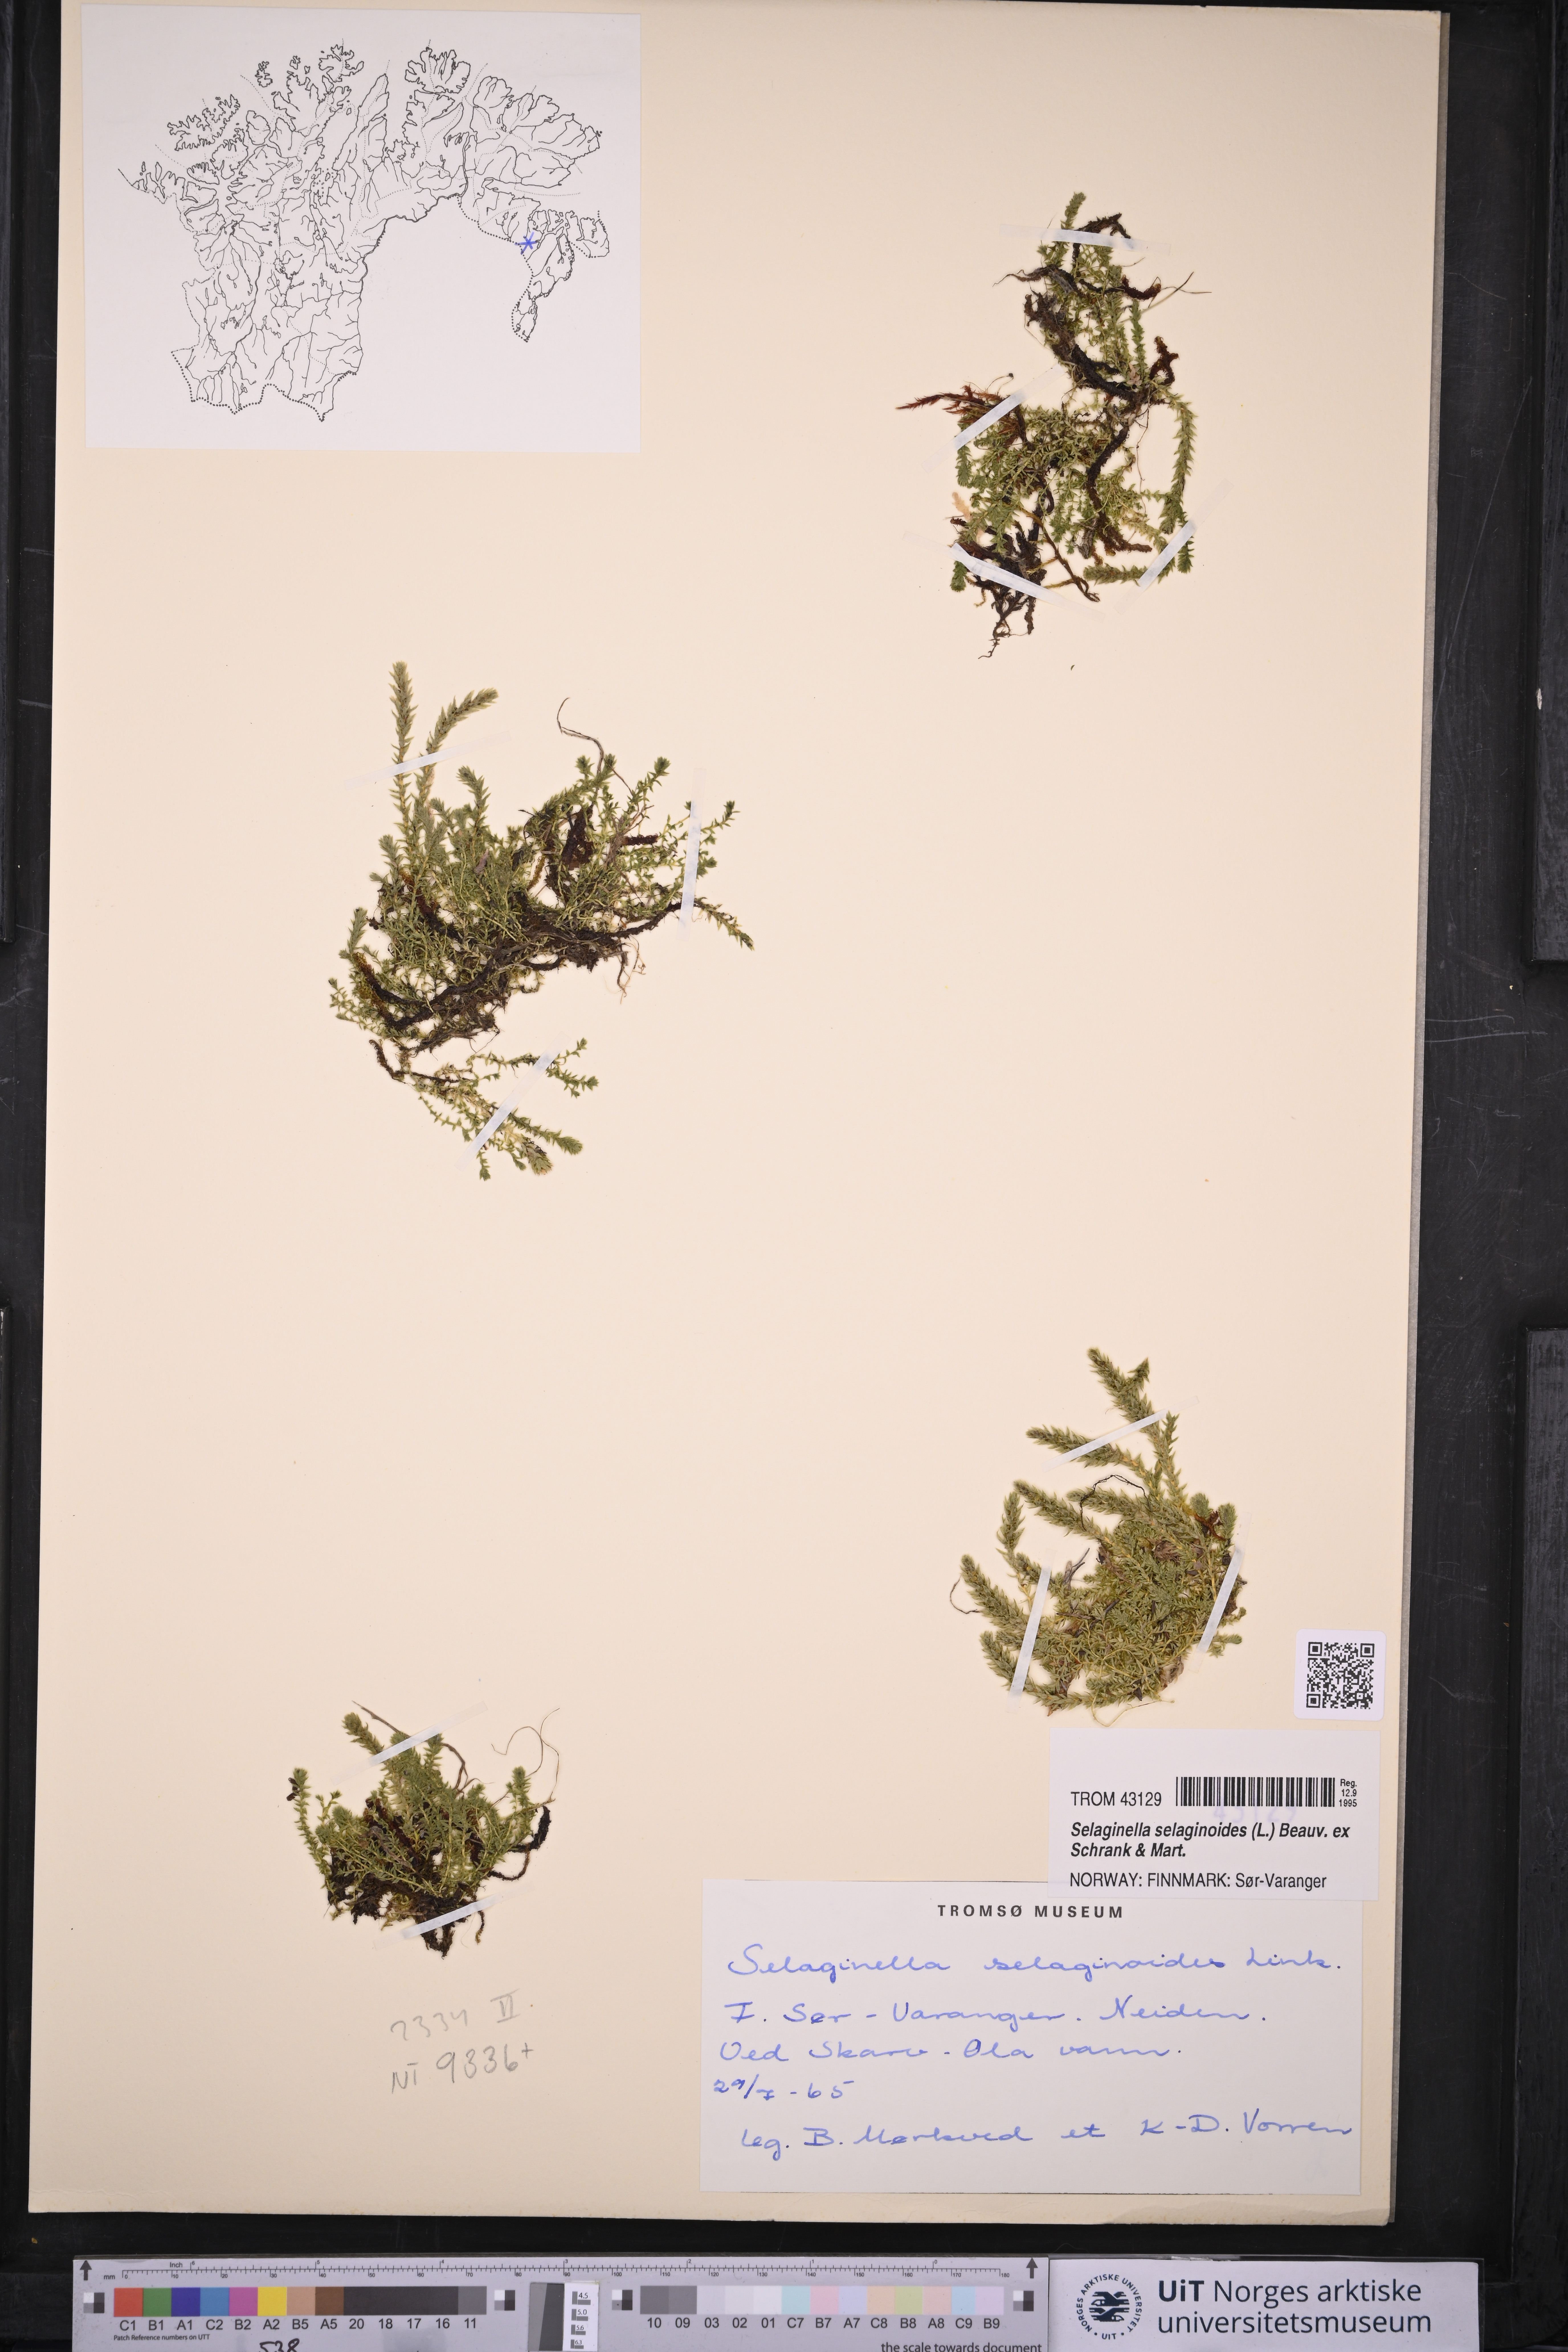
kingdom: Plantae
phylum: Tracheophyta
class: Lycopodiopsida
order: Selaginellales
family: Selaginellaceae
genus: Selaginella
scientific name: Selaginella selaginoides
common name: Prickly mountain-moss
